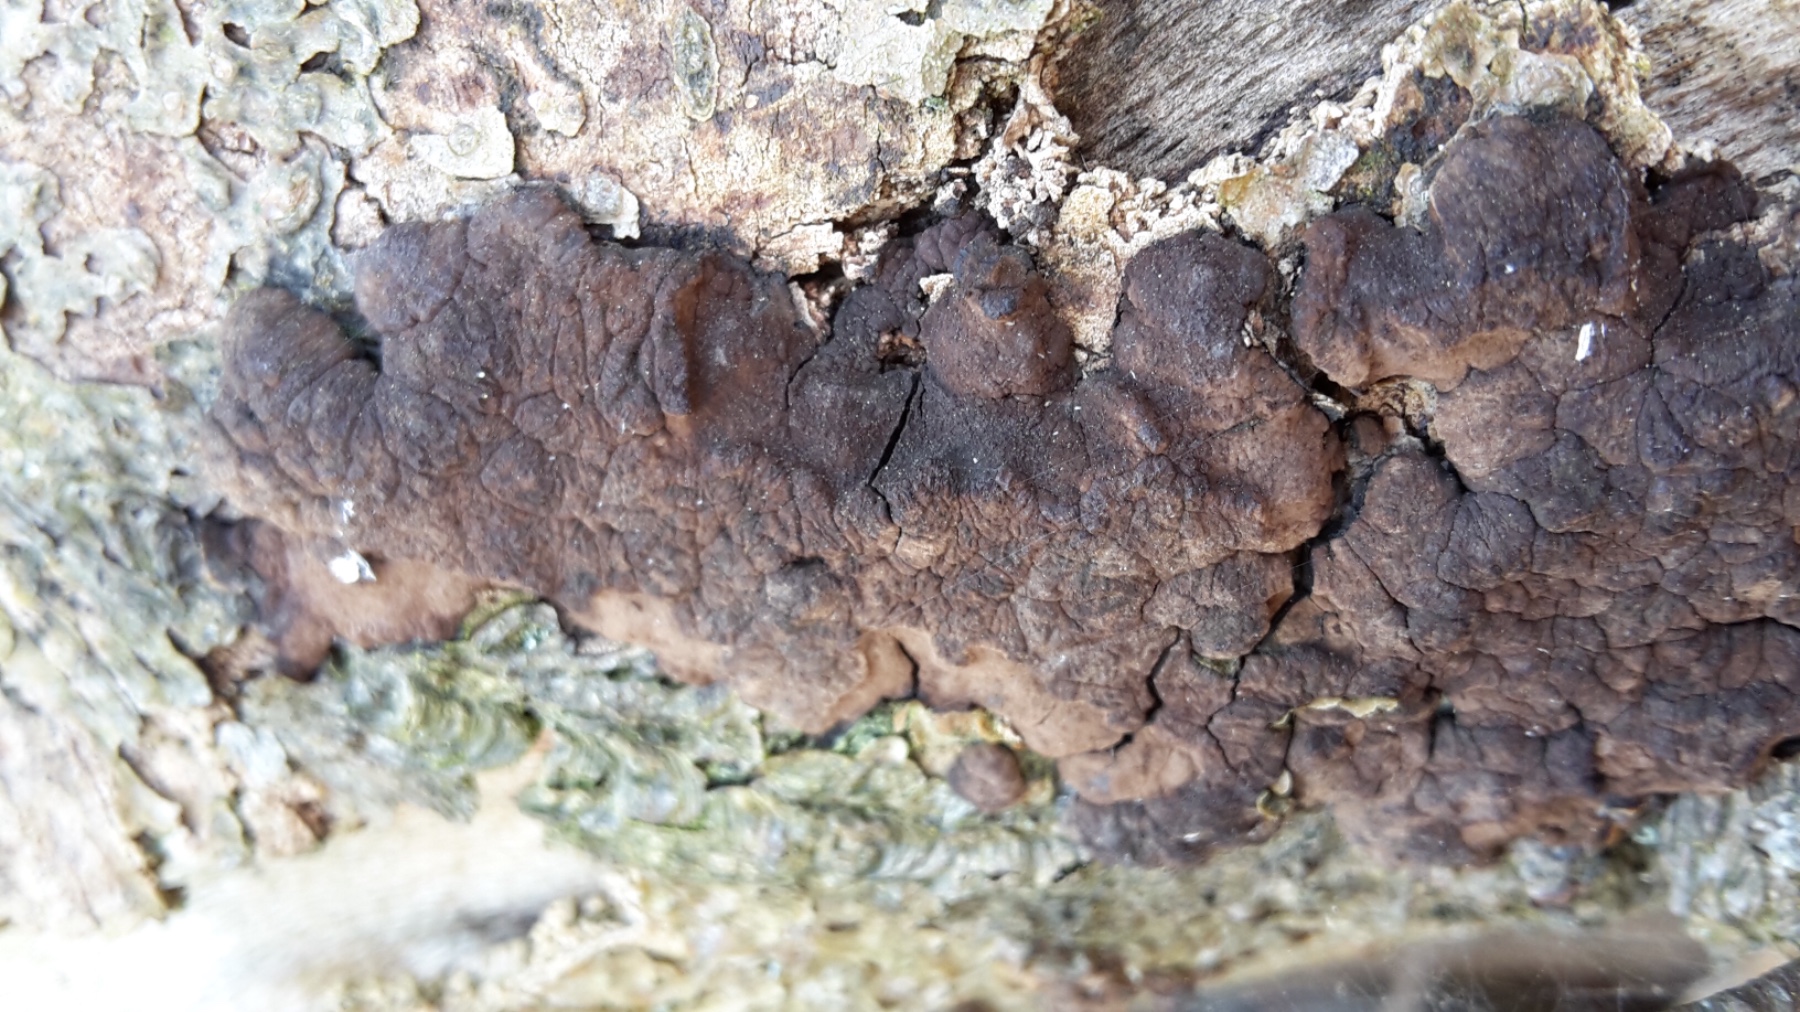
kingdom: Fungi
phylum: Ascomycota
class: Sordariomycetes
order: Xylariales
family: Hypoxylaceae
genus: Jackrogersella
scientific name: Jackrogersella
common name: kulbær
